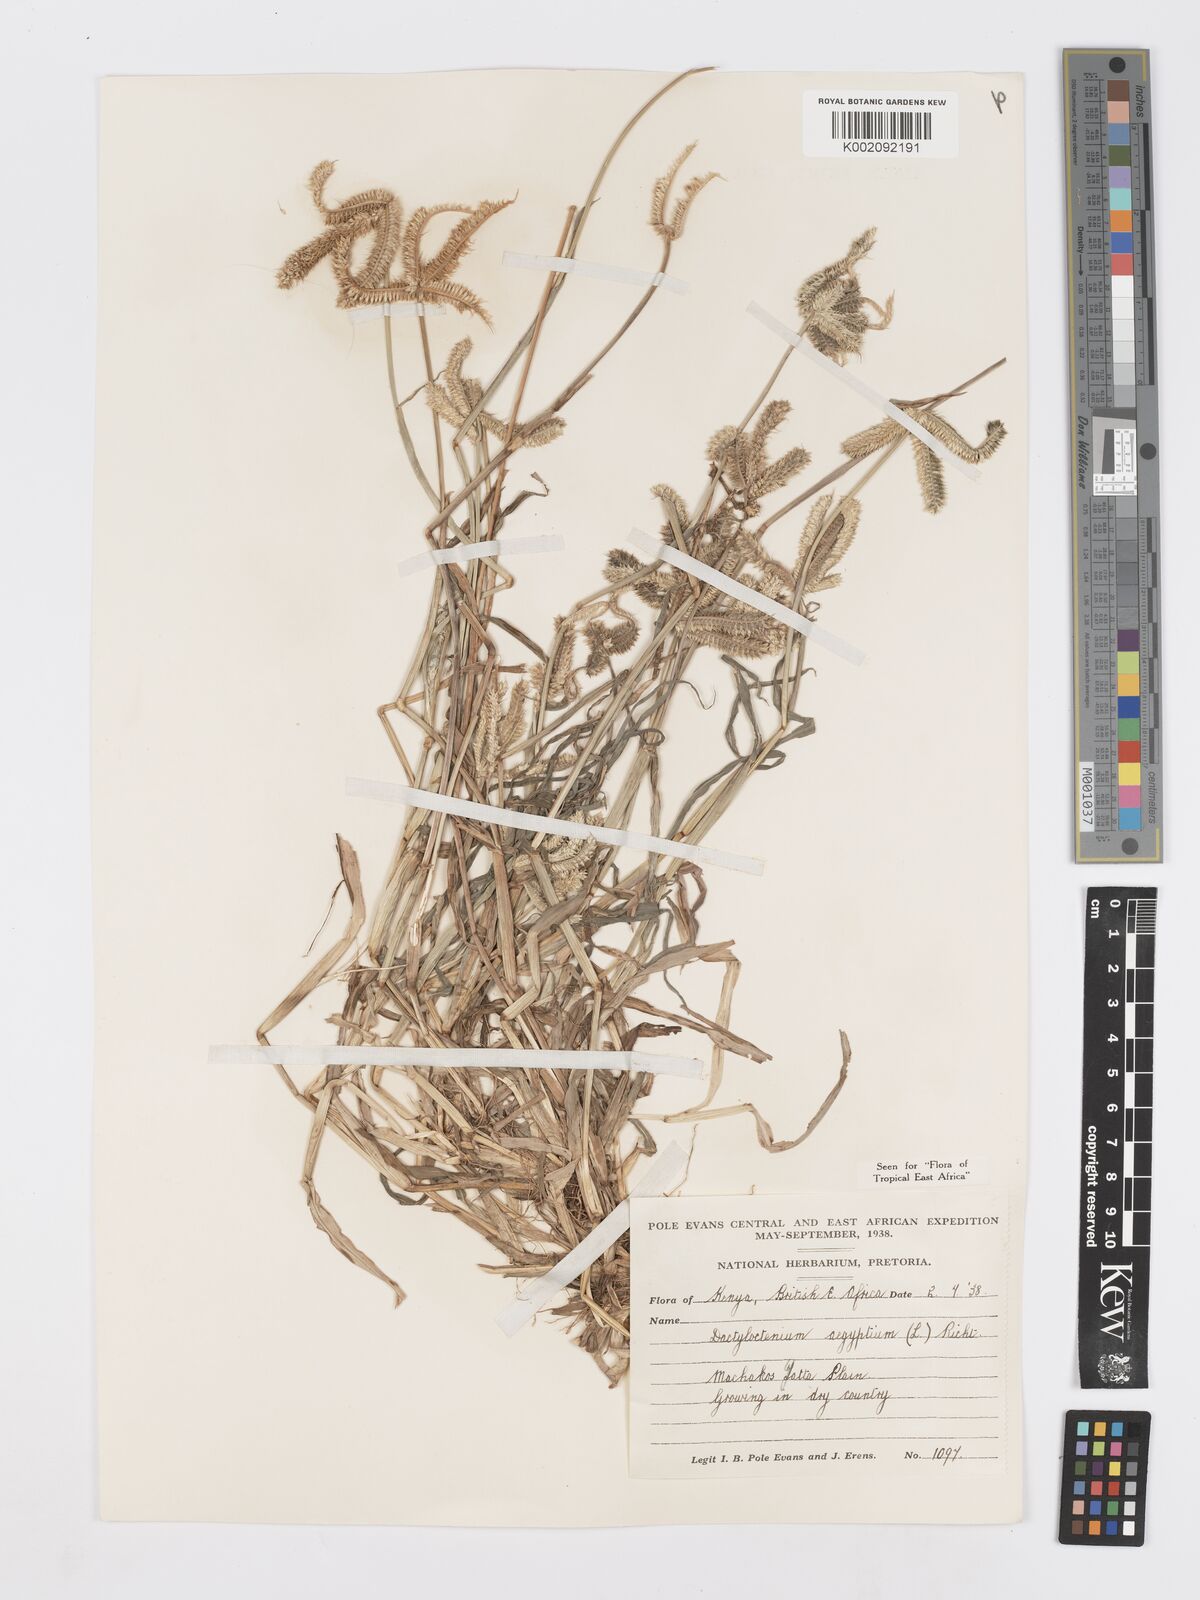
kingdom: Plantae
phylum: Tracheophyta
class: Liliopsida
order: Poales
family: Poaceae
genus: Dactyloctenium
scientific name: Dactyloctenium aegyptium
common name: Egyptian grass
